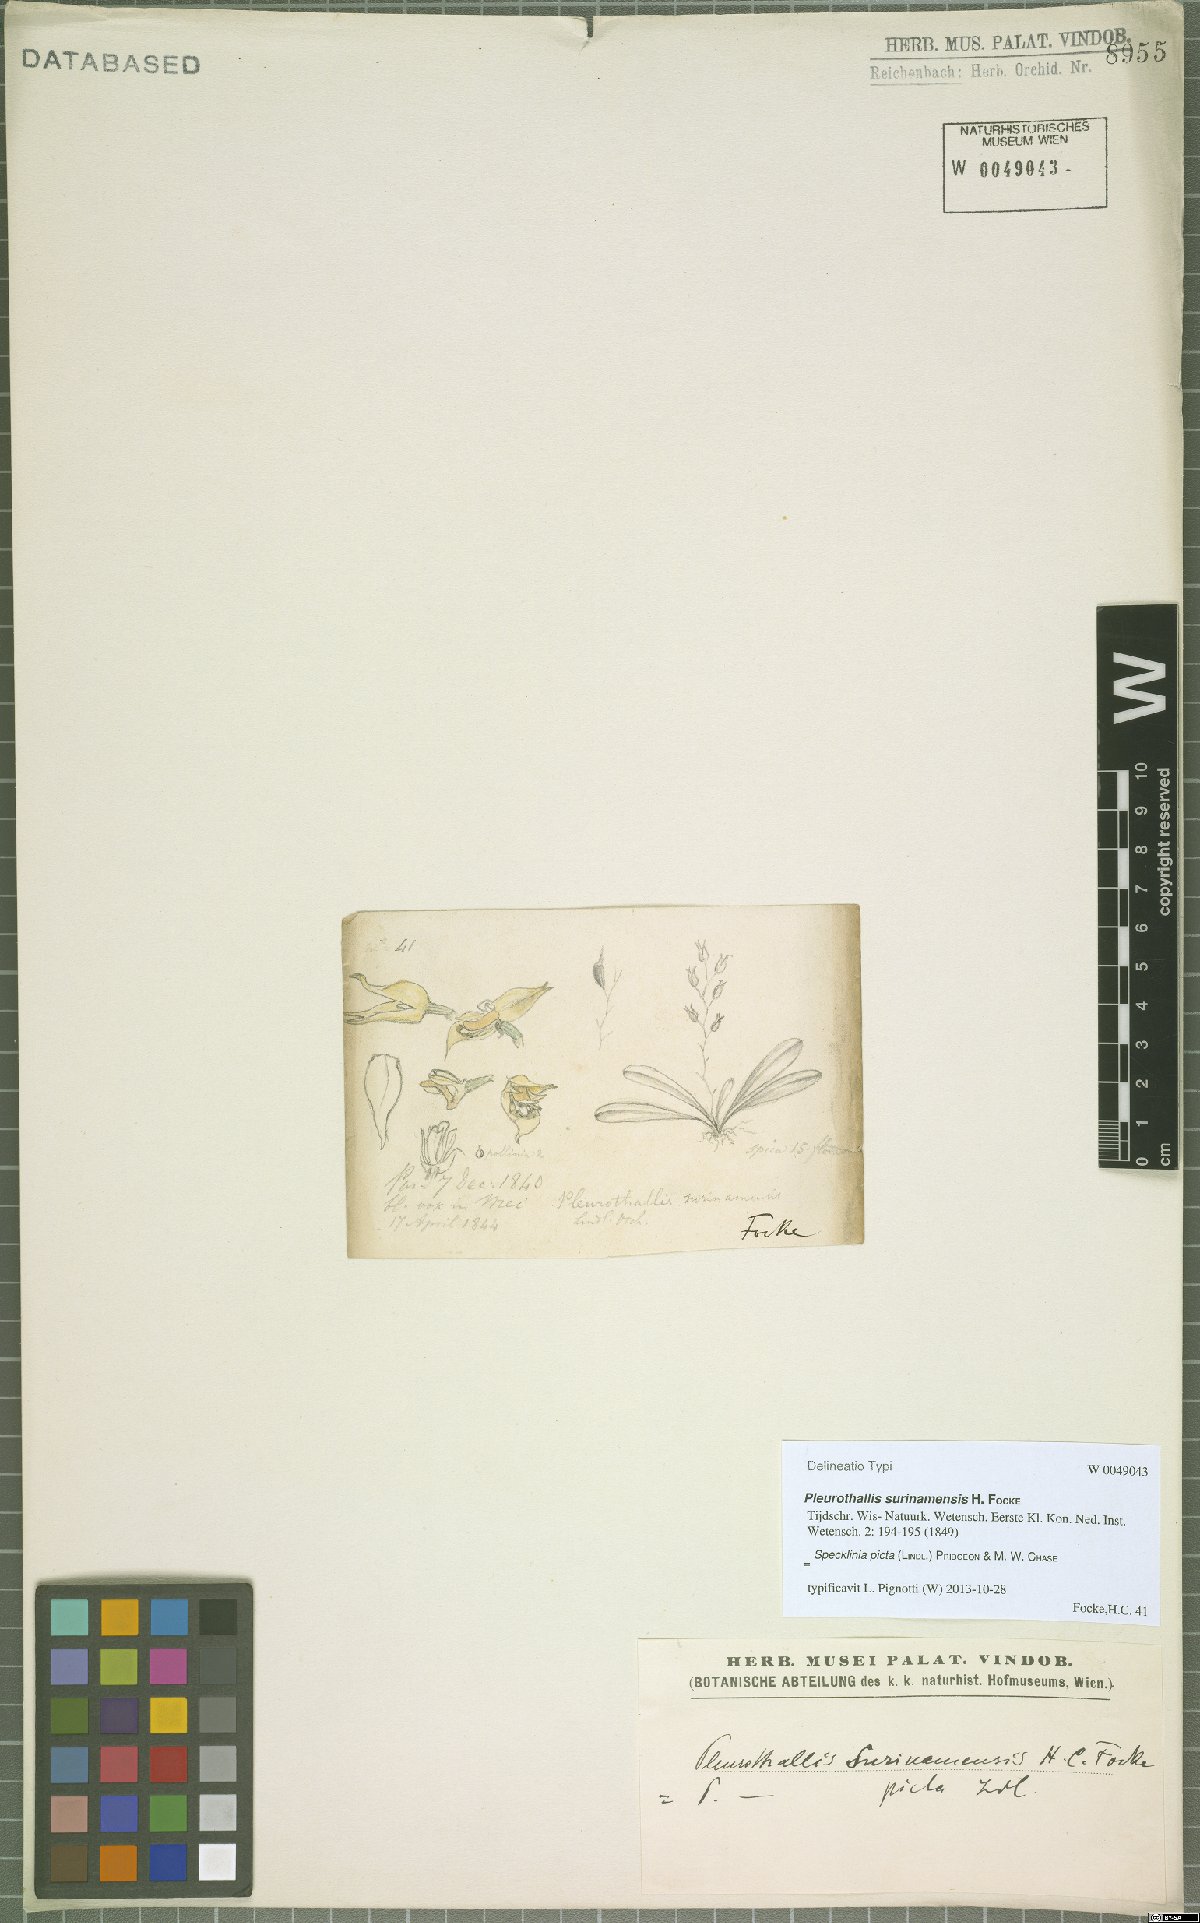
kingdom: Plantae
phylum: Tracheophyta
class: Liliopsida
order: Asparagales
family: Orchidaceae
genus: Specklinia
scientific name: Specklinia picta
